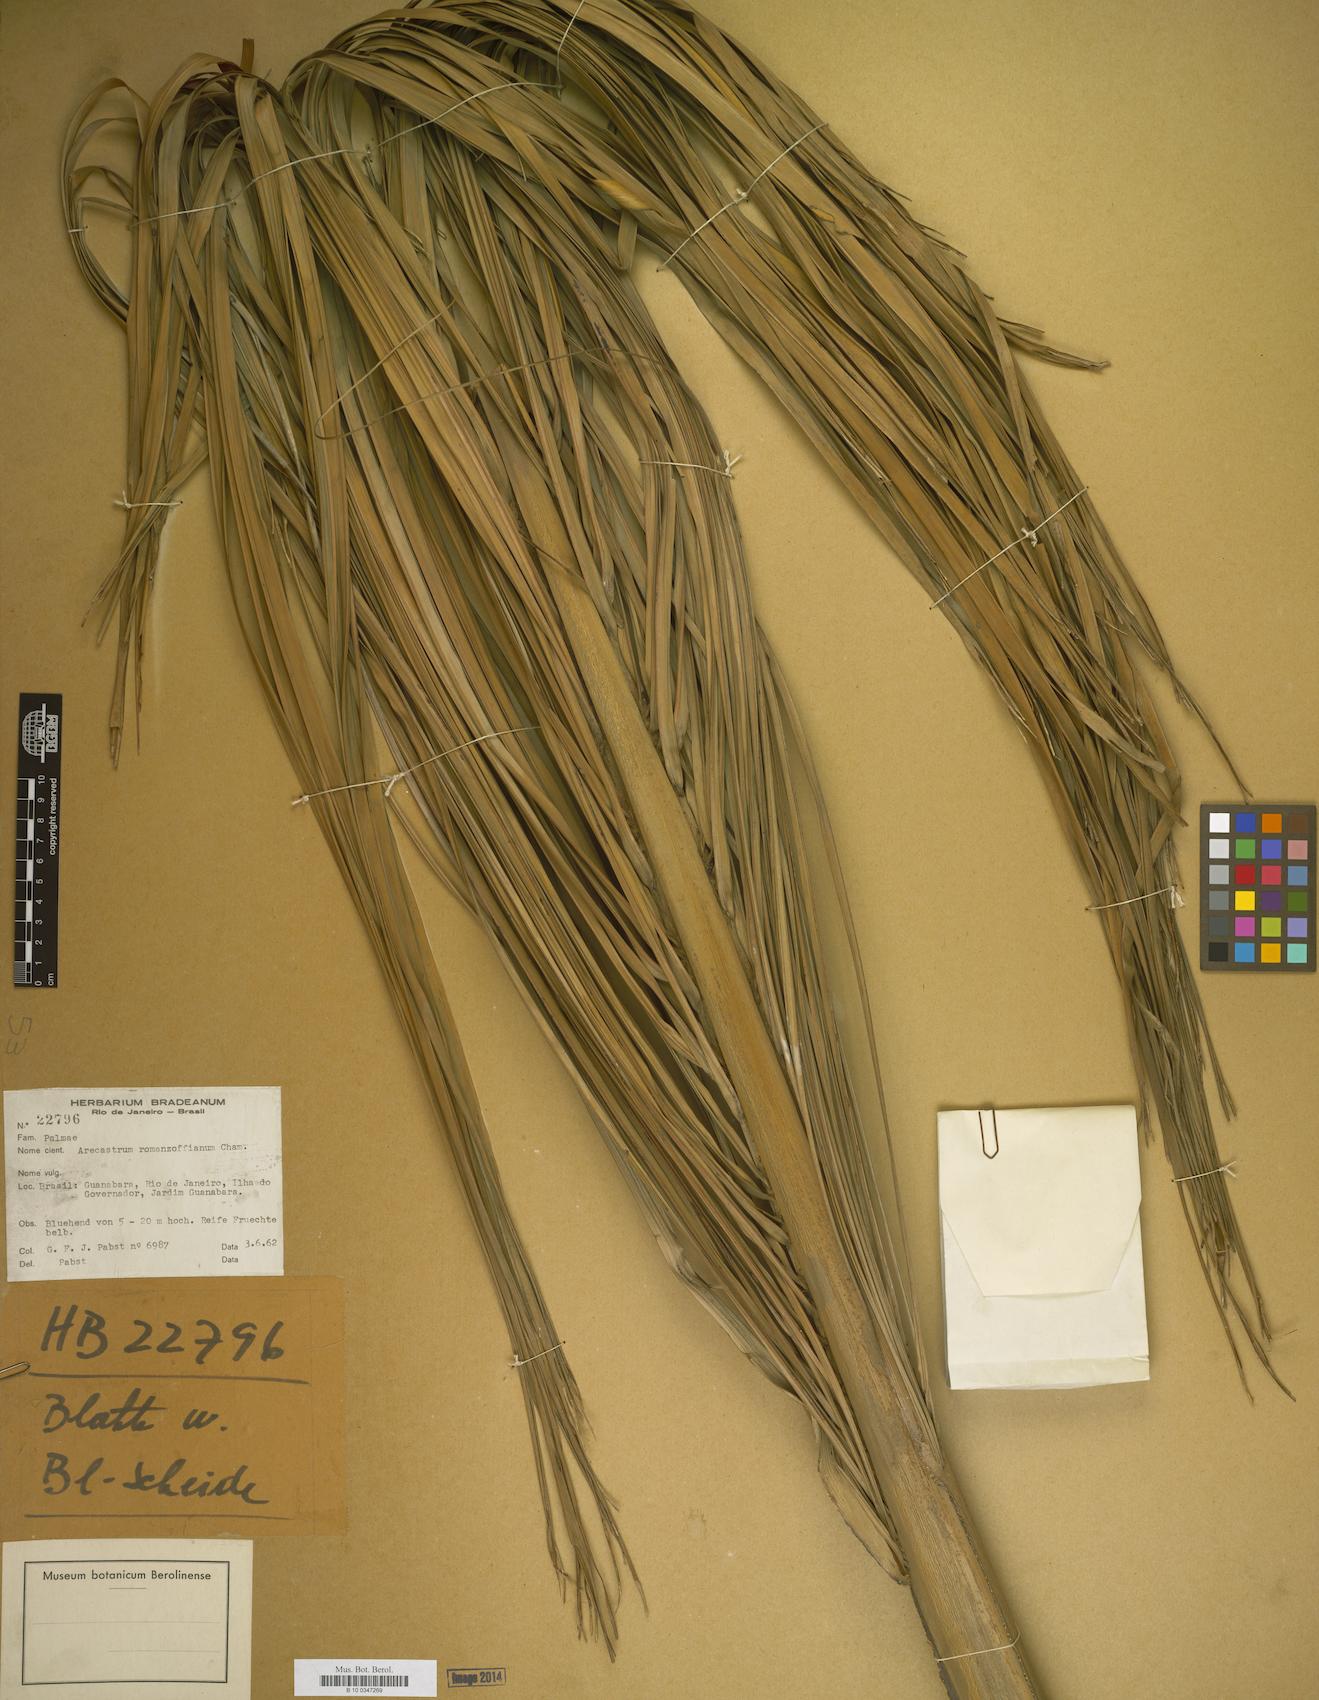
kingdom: Plantae
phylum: Tracheophyta
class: Liliopsida
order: Arecales
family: Arecaceae
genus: Syagrus
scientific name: Syagrus romanzoffiana
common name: Queen palm
